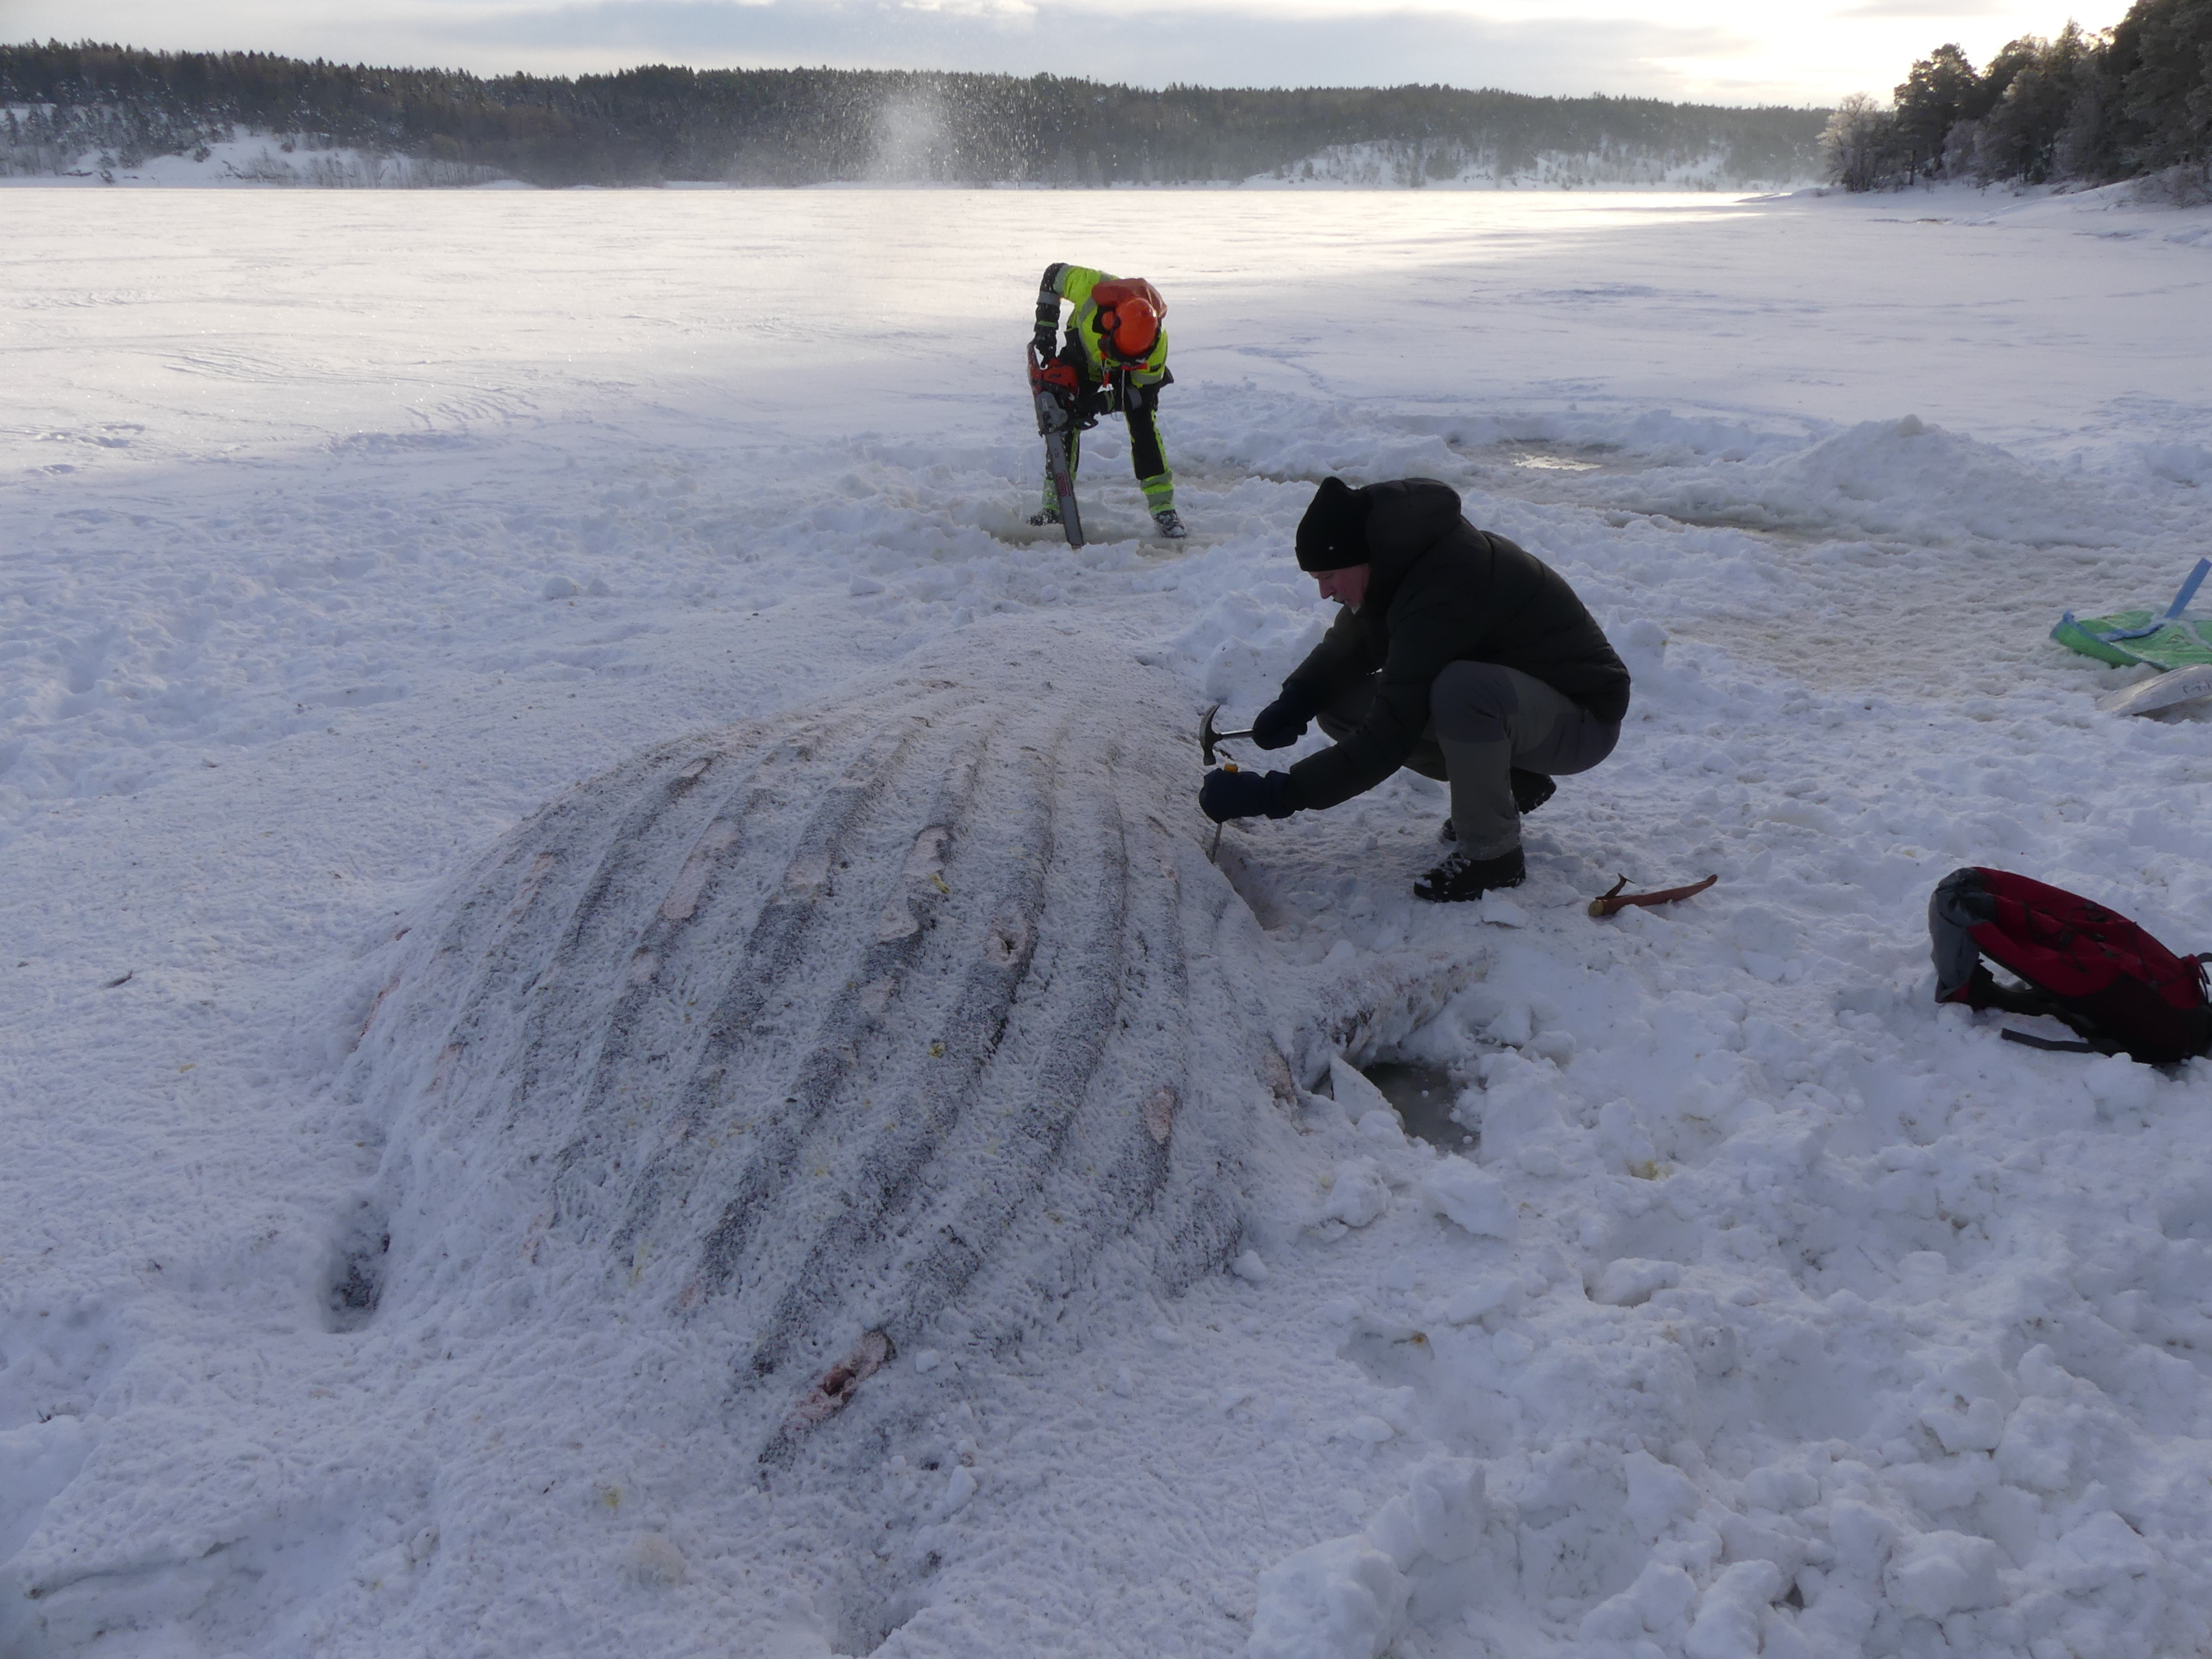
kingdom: Animalia
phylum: Chordata
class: Mammalia
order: Cetacea
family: Balaenopteridae
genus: Megaptera
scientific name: Megaptera novaeangliae
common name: Humpback whale
